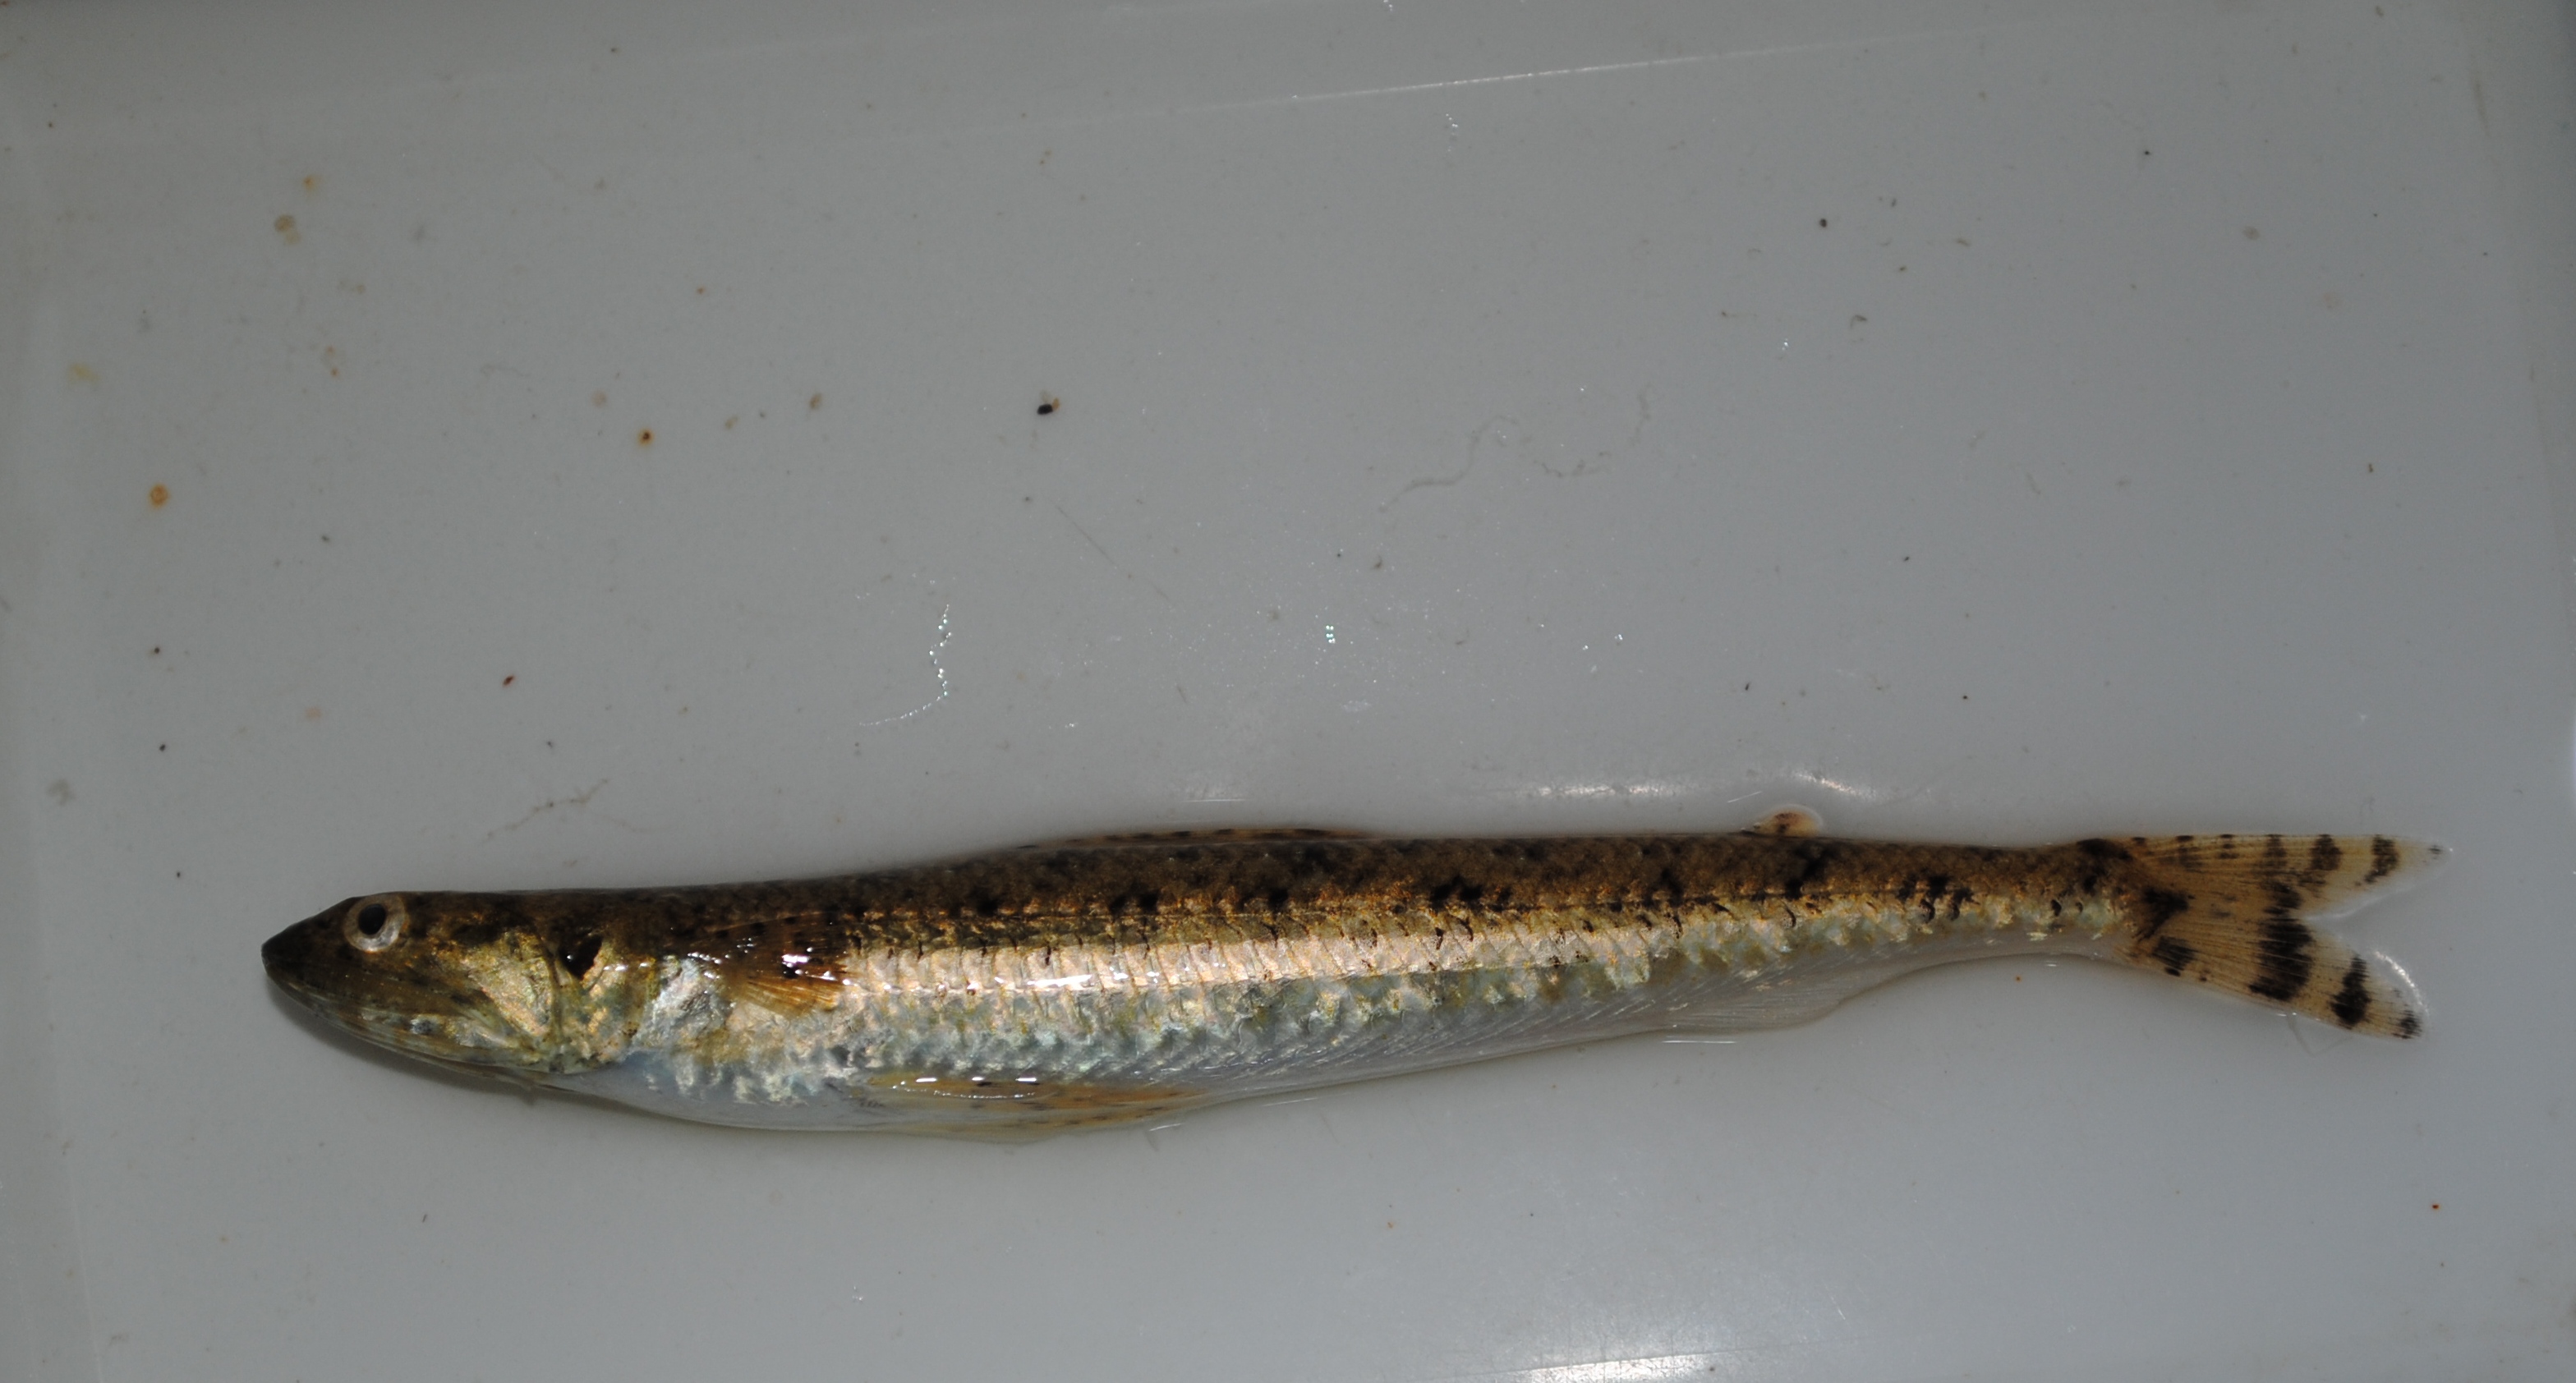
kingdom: Animalia
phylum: Chordata
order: Aulopiformes
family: Synodontidae
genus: Saurida
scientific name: Saurida gracilis
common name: Slender lizardfish
